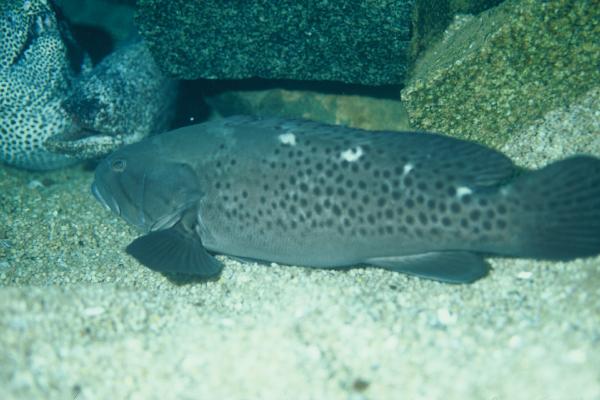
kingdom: Animalia
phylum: Chordata
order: Perciformes
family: Serranidae
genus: Epinephelus
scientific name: Epinephelus andersoni
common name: Catface rockcod
